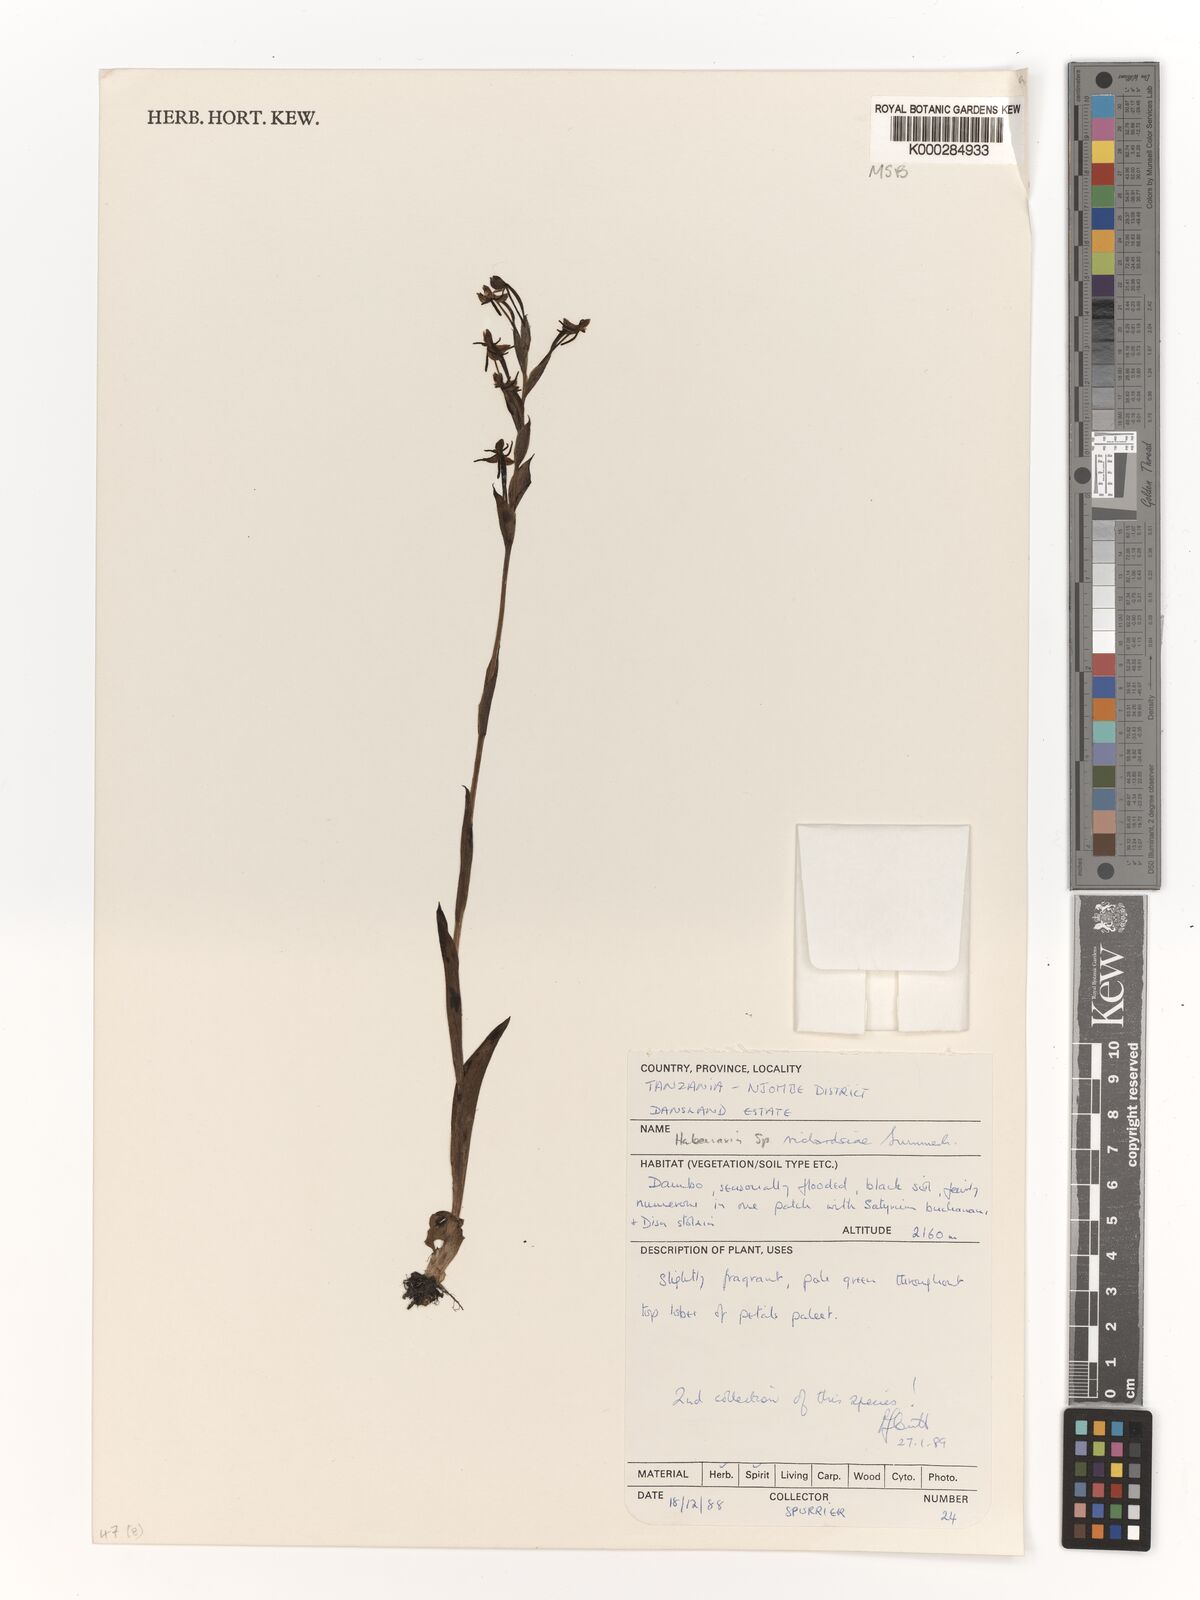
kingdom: Plantae
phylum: Tracheophyta
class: Liliopsida
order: Asparagales
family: Orchidaceae
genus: Habenaria
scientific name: Habenaria richardsiae
